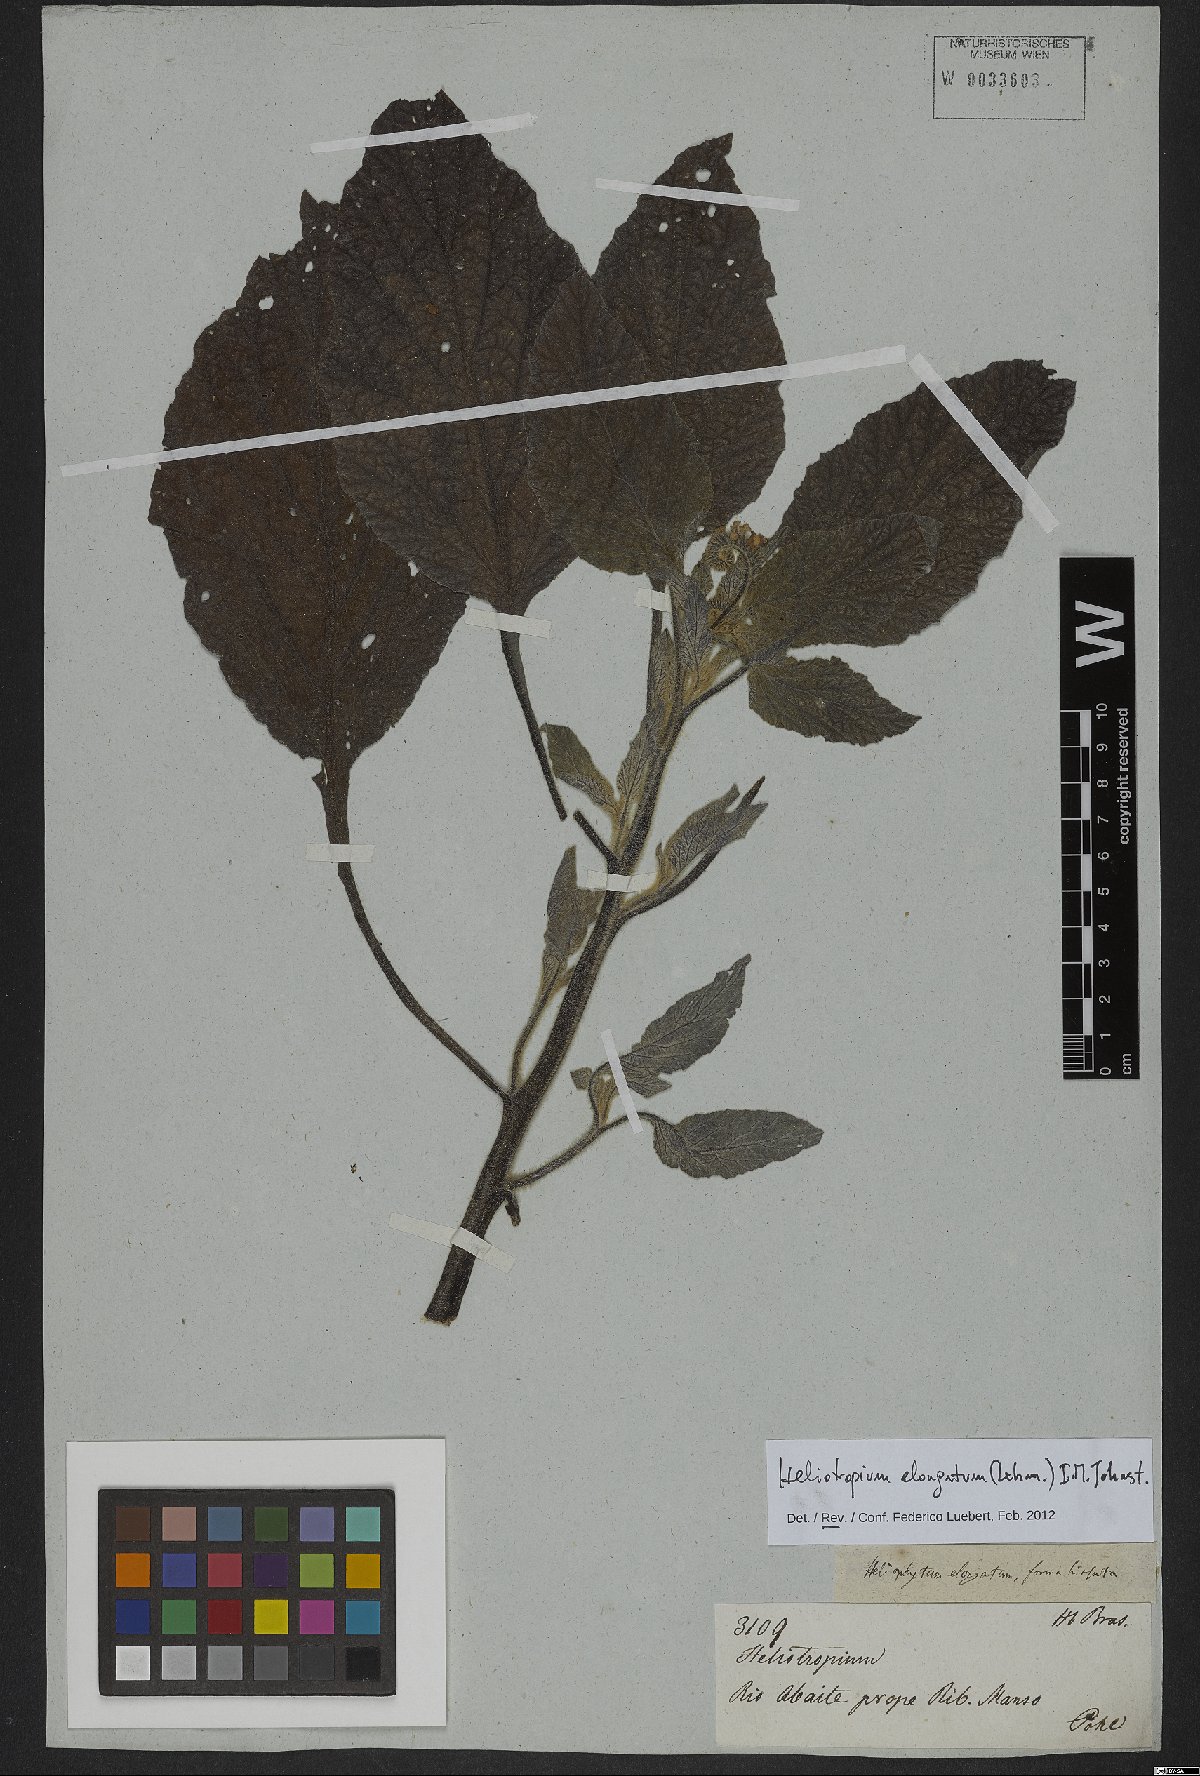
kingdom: Plantae
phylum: Tracheophyta
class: Magnoliopsida
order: Boraginales
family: Heliotropiaceae
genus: Heliotropium
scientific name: Heliotropium elongatum
